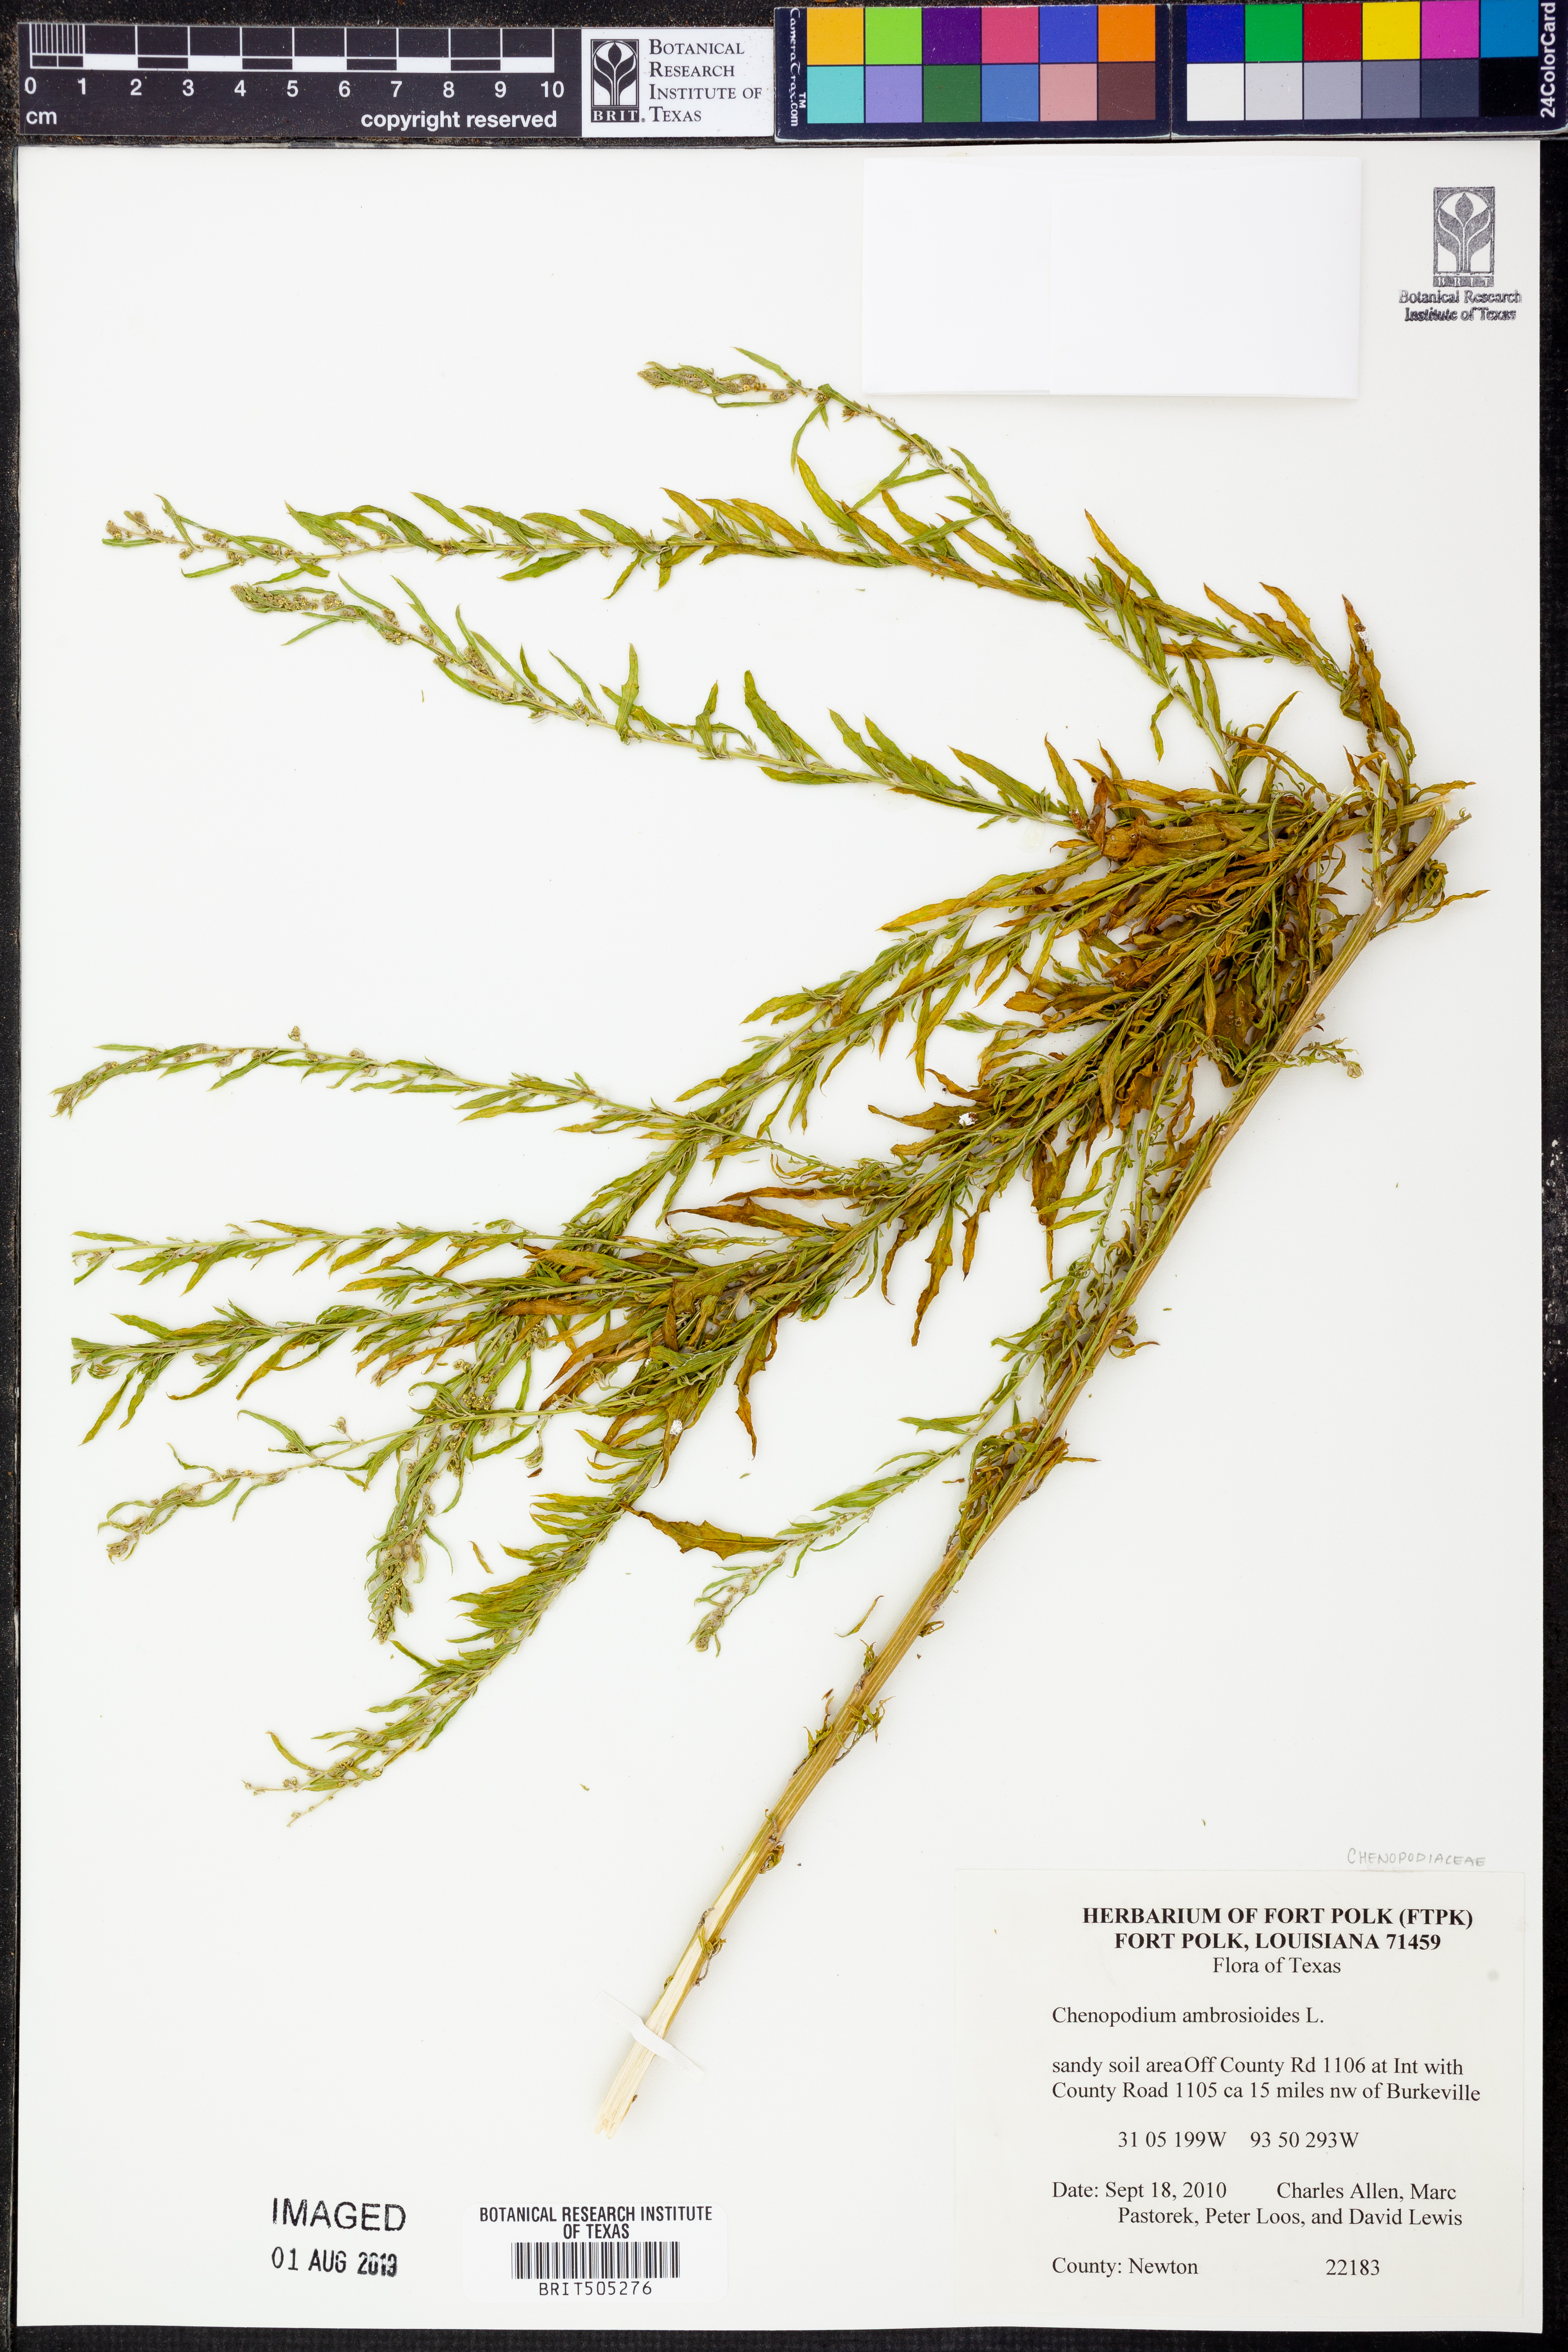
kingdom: Plantae
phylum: Tracheophyta
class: Magnoliopsida
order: Caryophyllales
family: Amaranthaceae
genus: Dysphania
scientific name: Dysphania ambrosioides
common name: Wormseed
